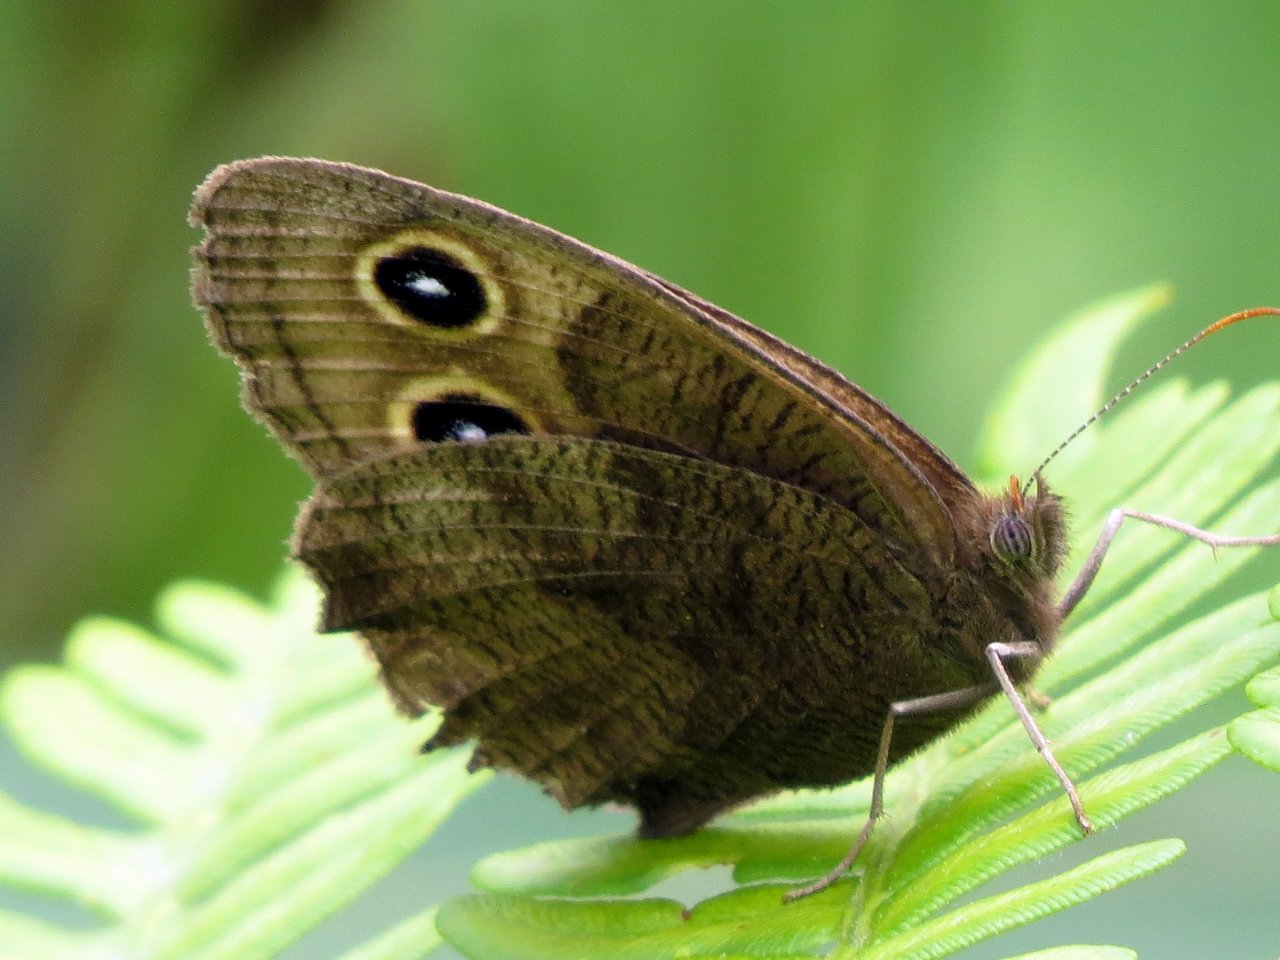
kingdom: Animalia
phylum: Arthropoda
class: Insecta
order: Lepidoptera
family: Nymphalidae
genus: Cercyonis
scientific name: Cercyonis pegala
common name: Common Wood-Nymph
